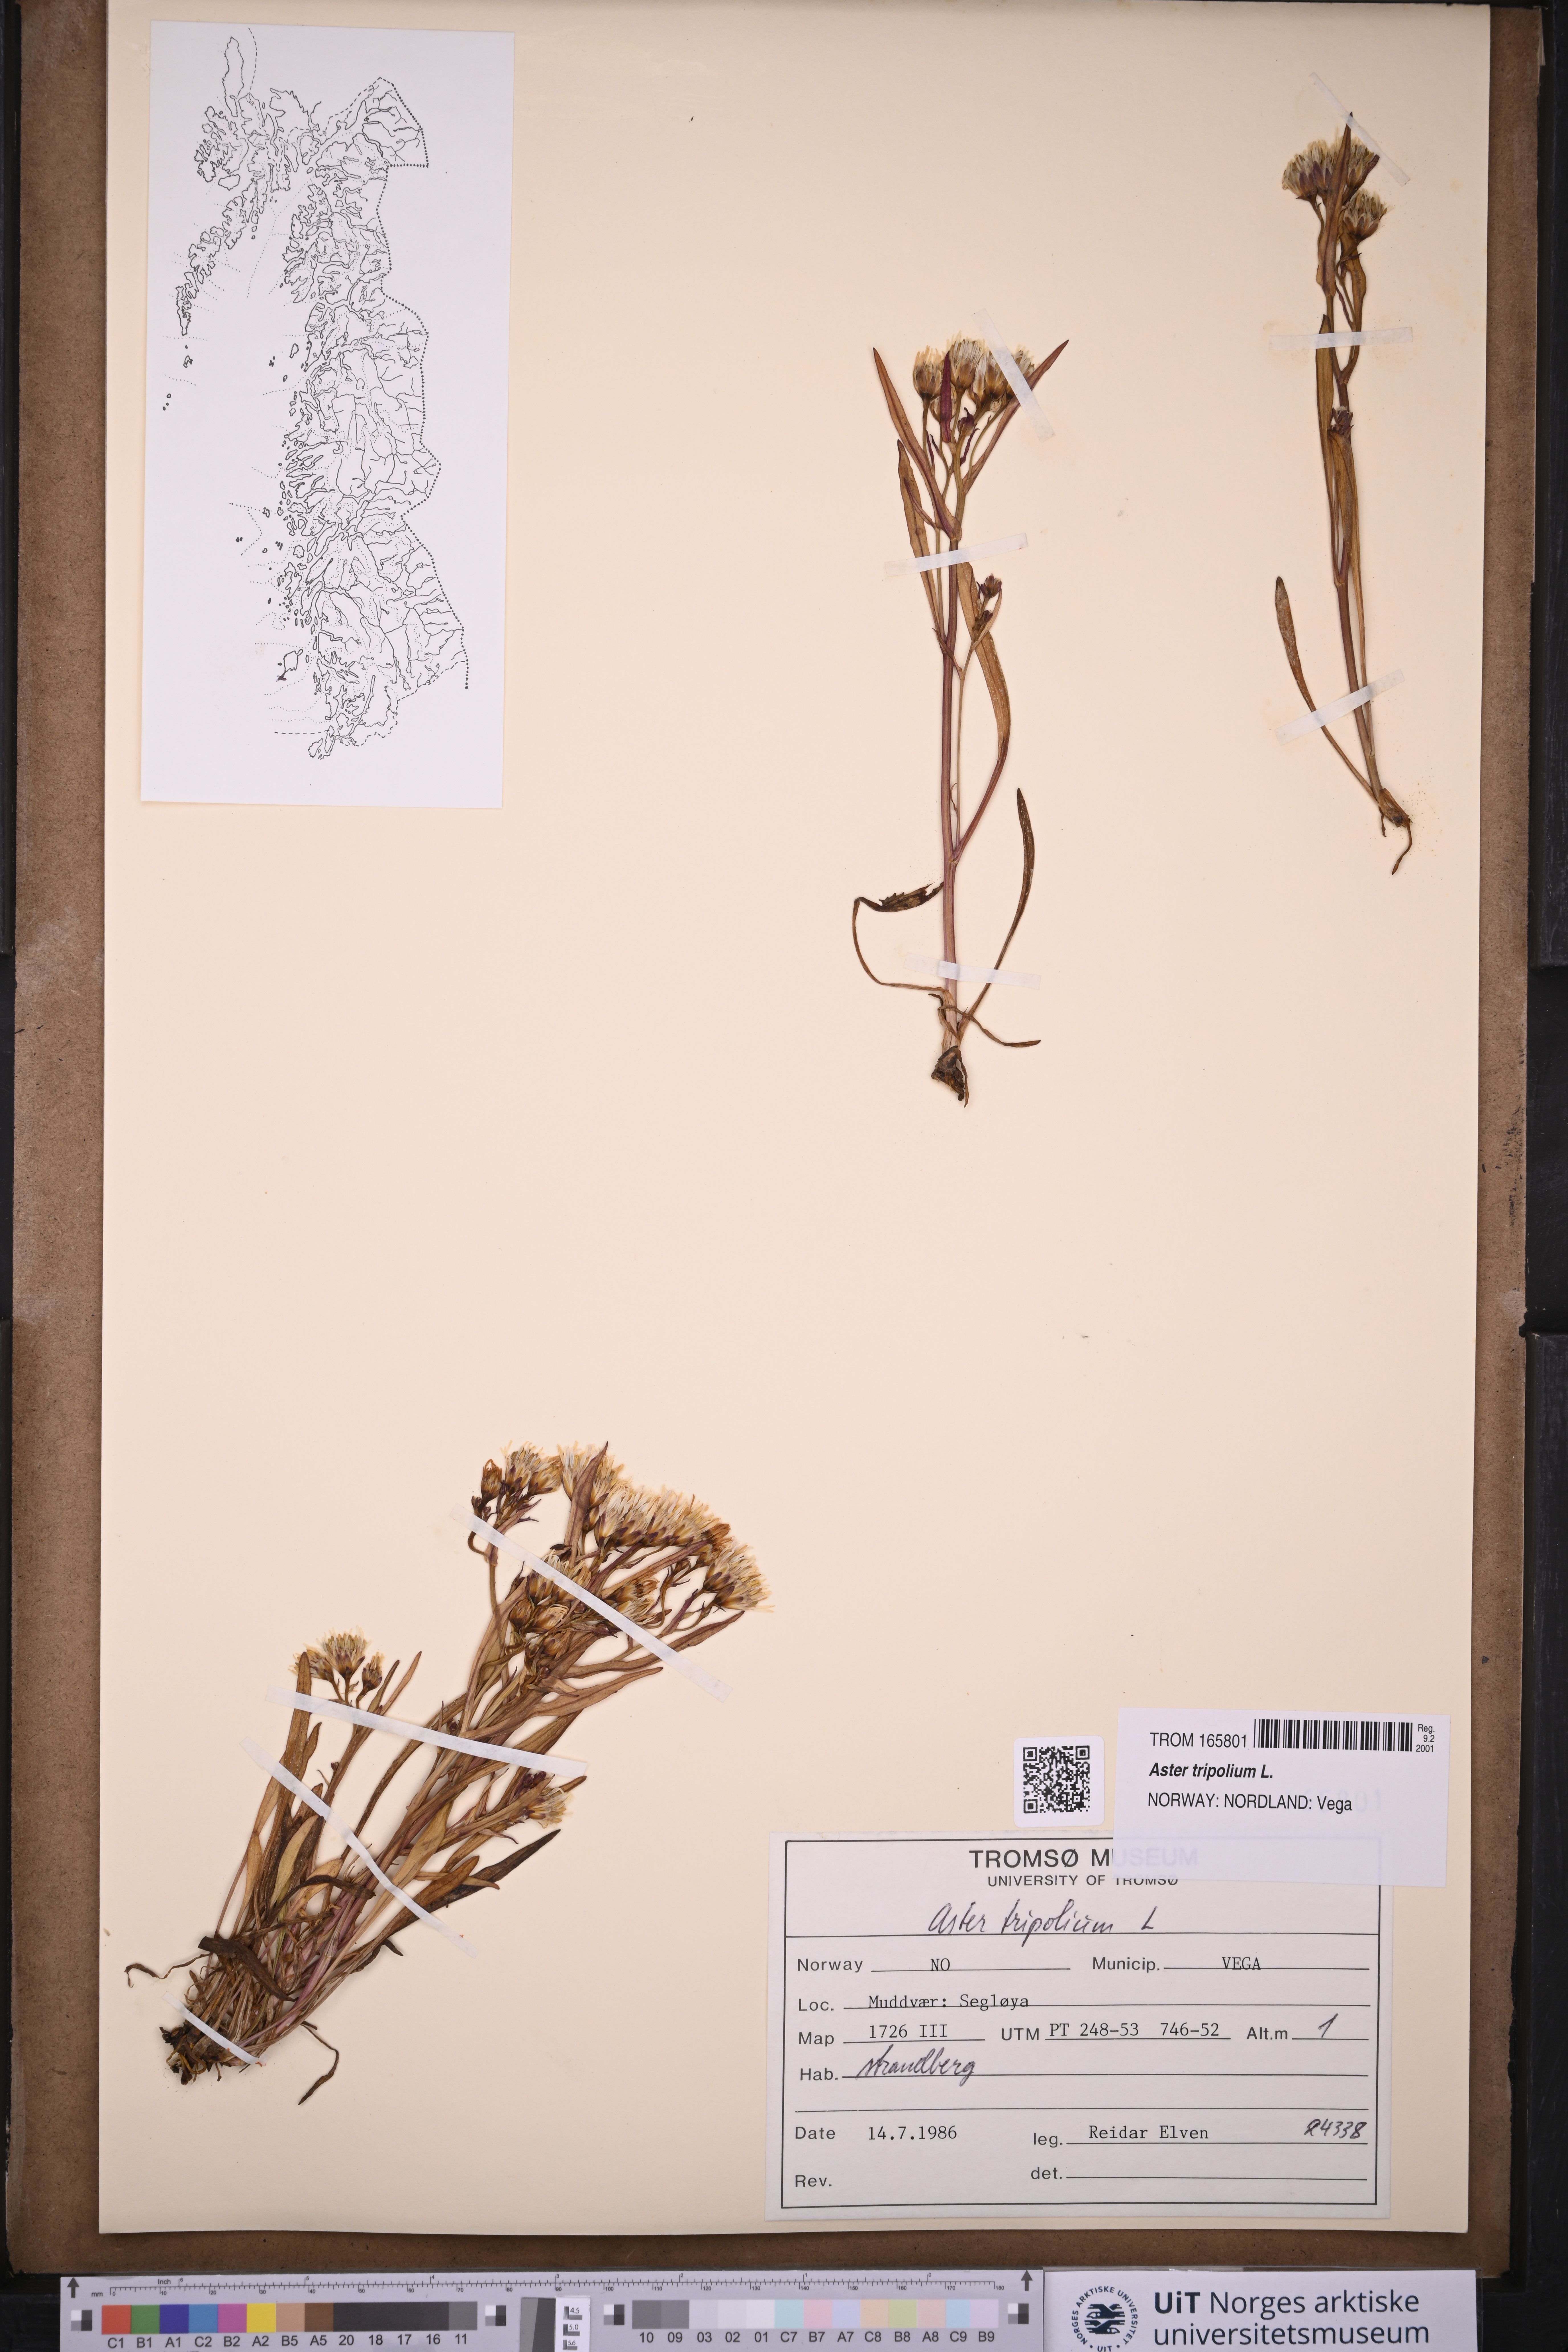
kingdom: Plantae
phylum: Tracheophyta
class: Magnoliopsida
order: Asterales
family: Asteraceae
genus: Tripolium
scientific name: Tripolium pannonicum
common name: Sea aster
